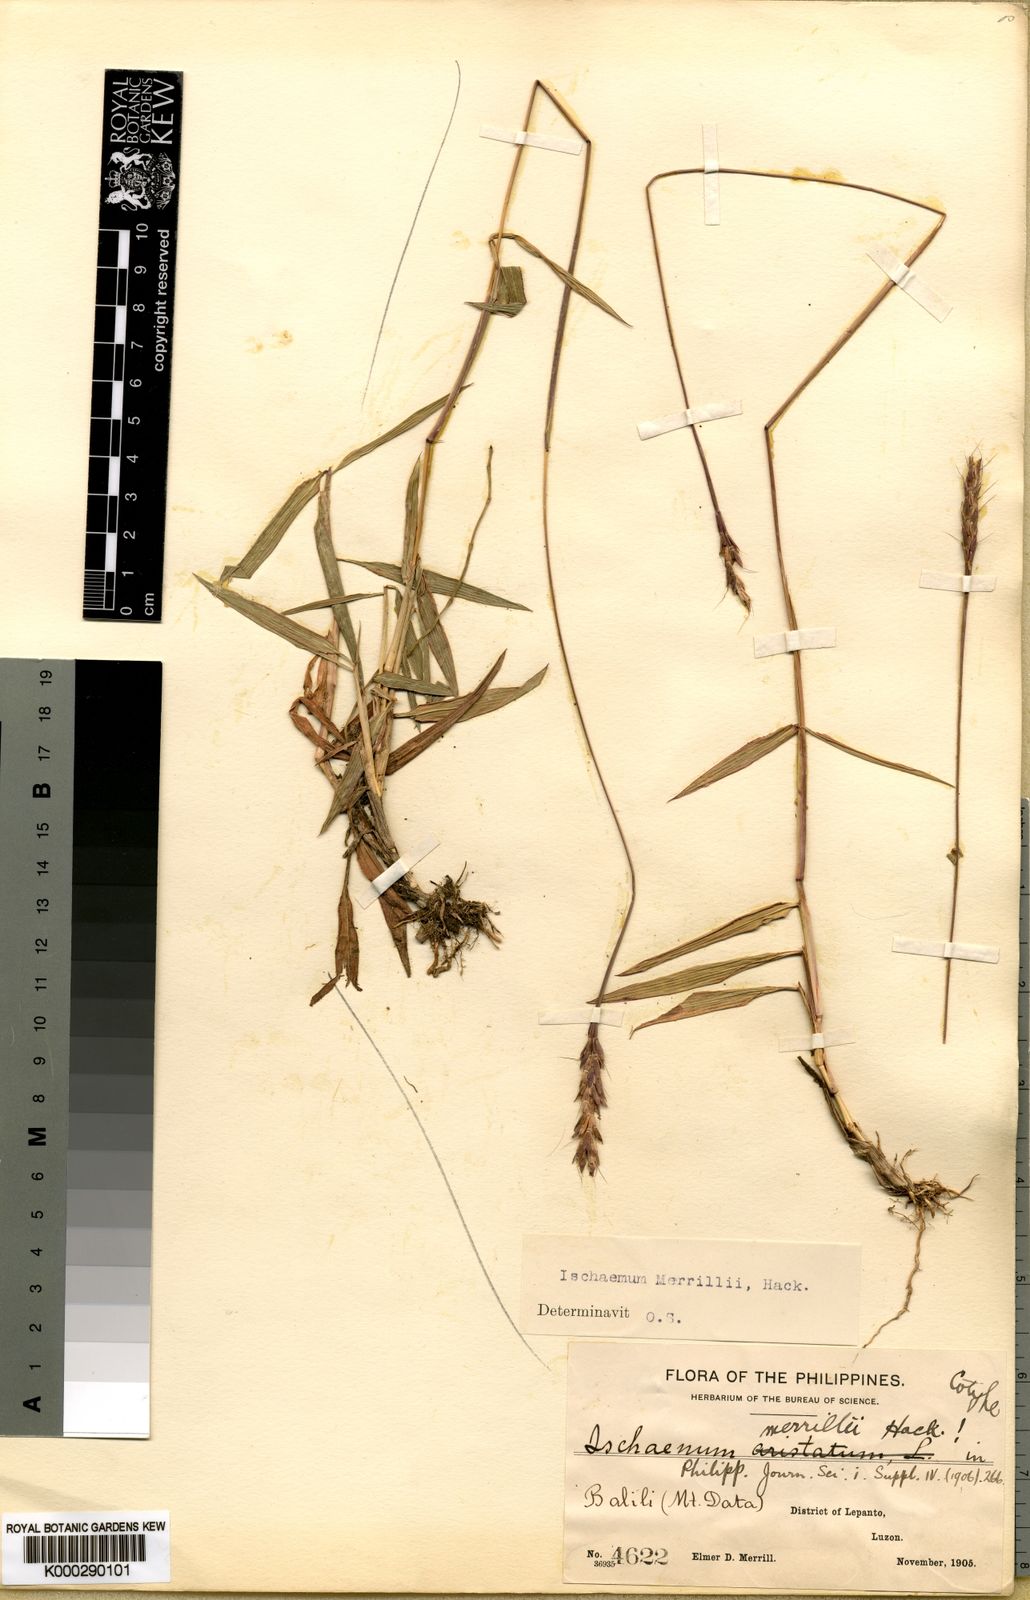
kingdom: Plantae
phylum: Tracheophyta
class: Liliopsida
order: Poales
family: Poaceae
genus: Ischaemum
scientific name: Ischaemum pubescens
